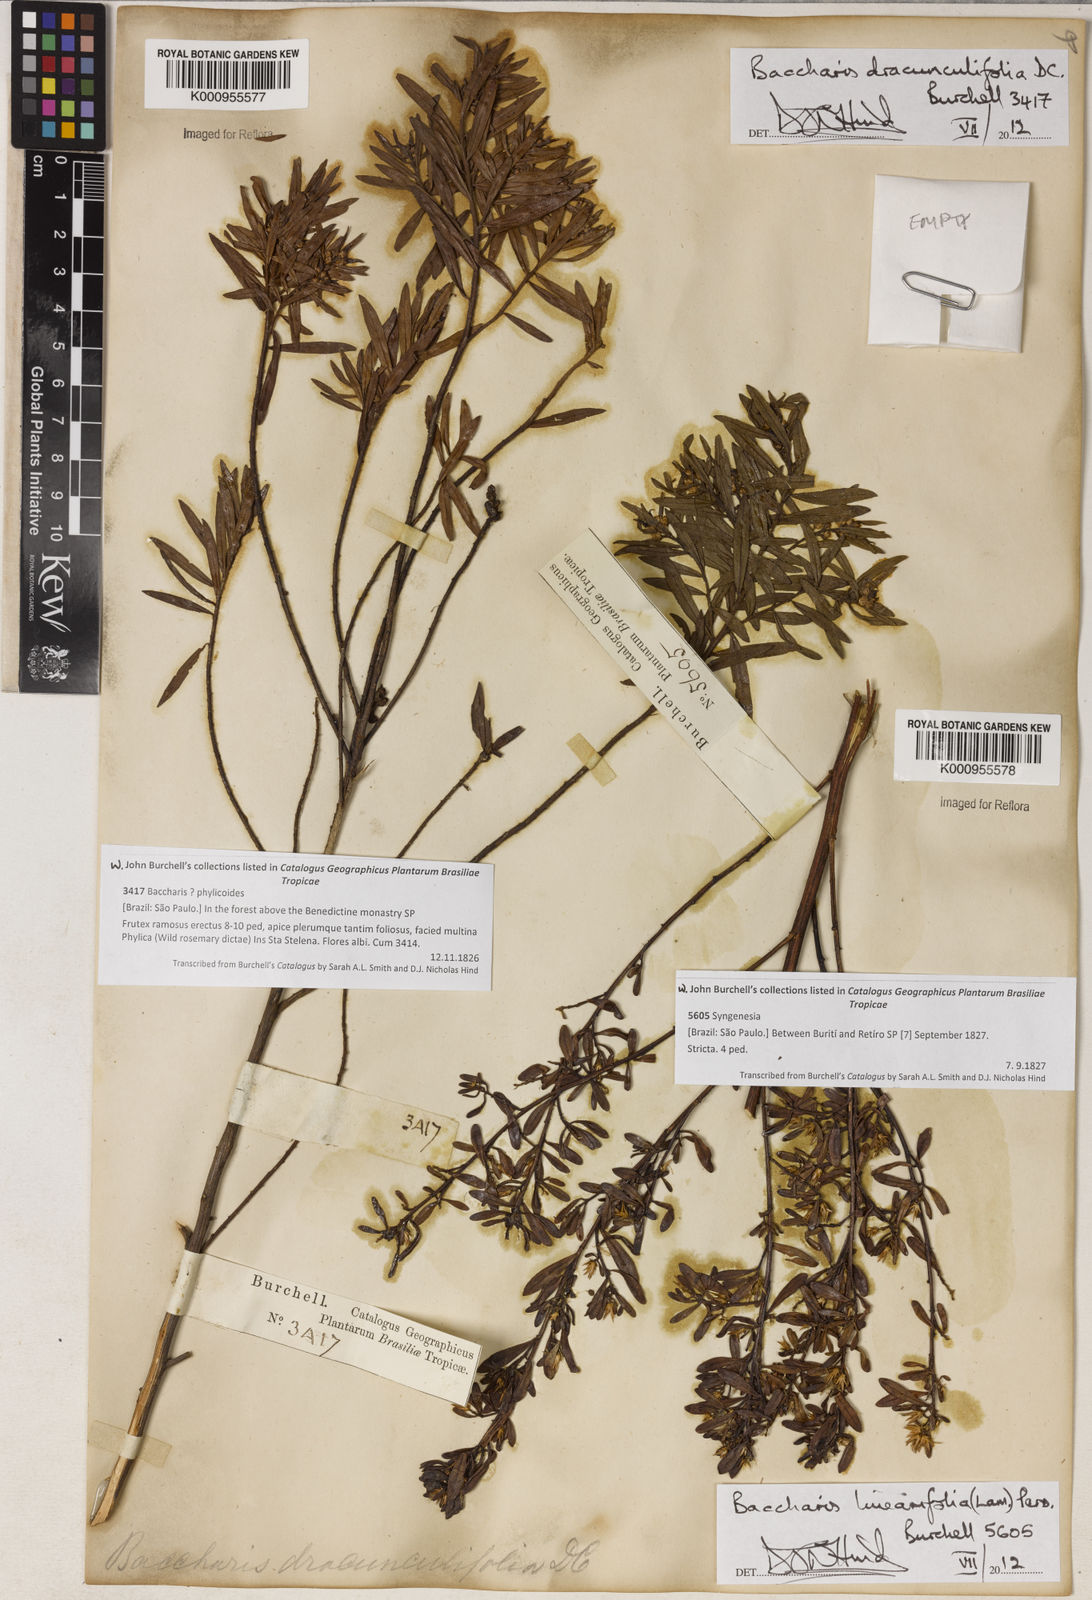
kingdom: Plantae
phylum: Tracheophyta
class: Magnoliopsida
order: Asterales
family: Asteraceae
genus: Baccharis
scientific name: Baccharis dracunculifolia
